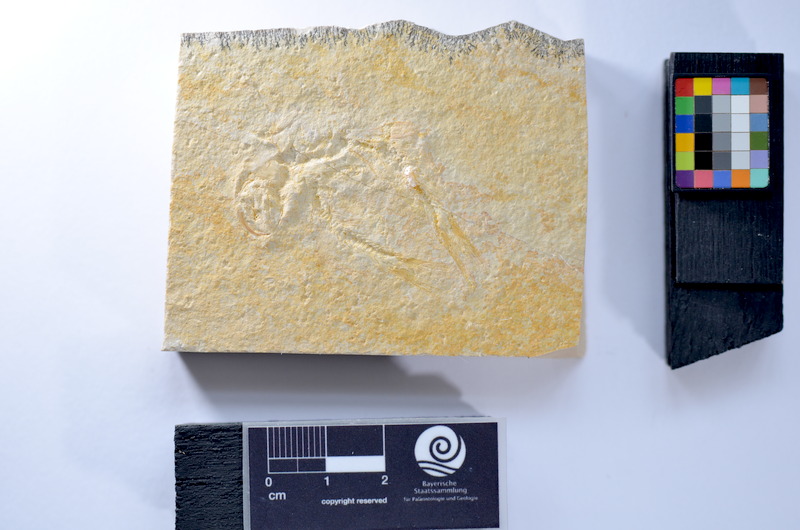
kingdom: Animalia
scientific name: Animalia
